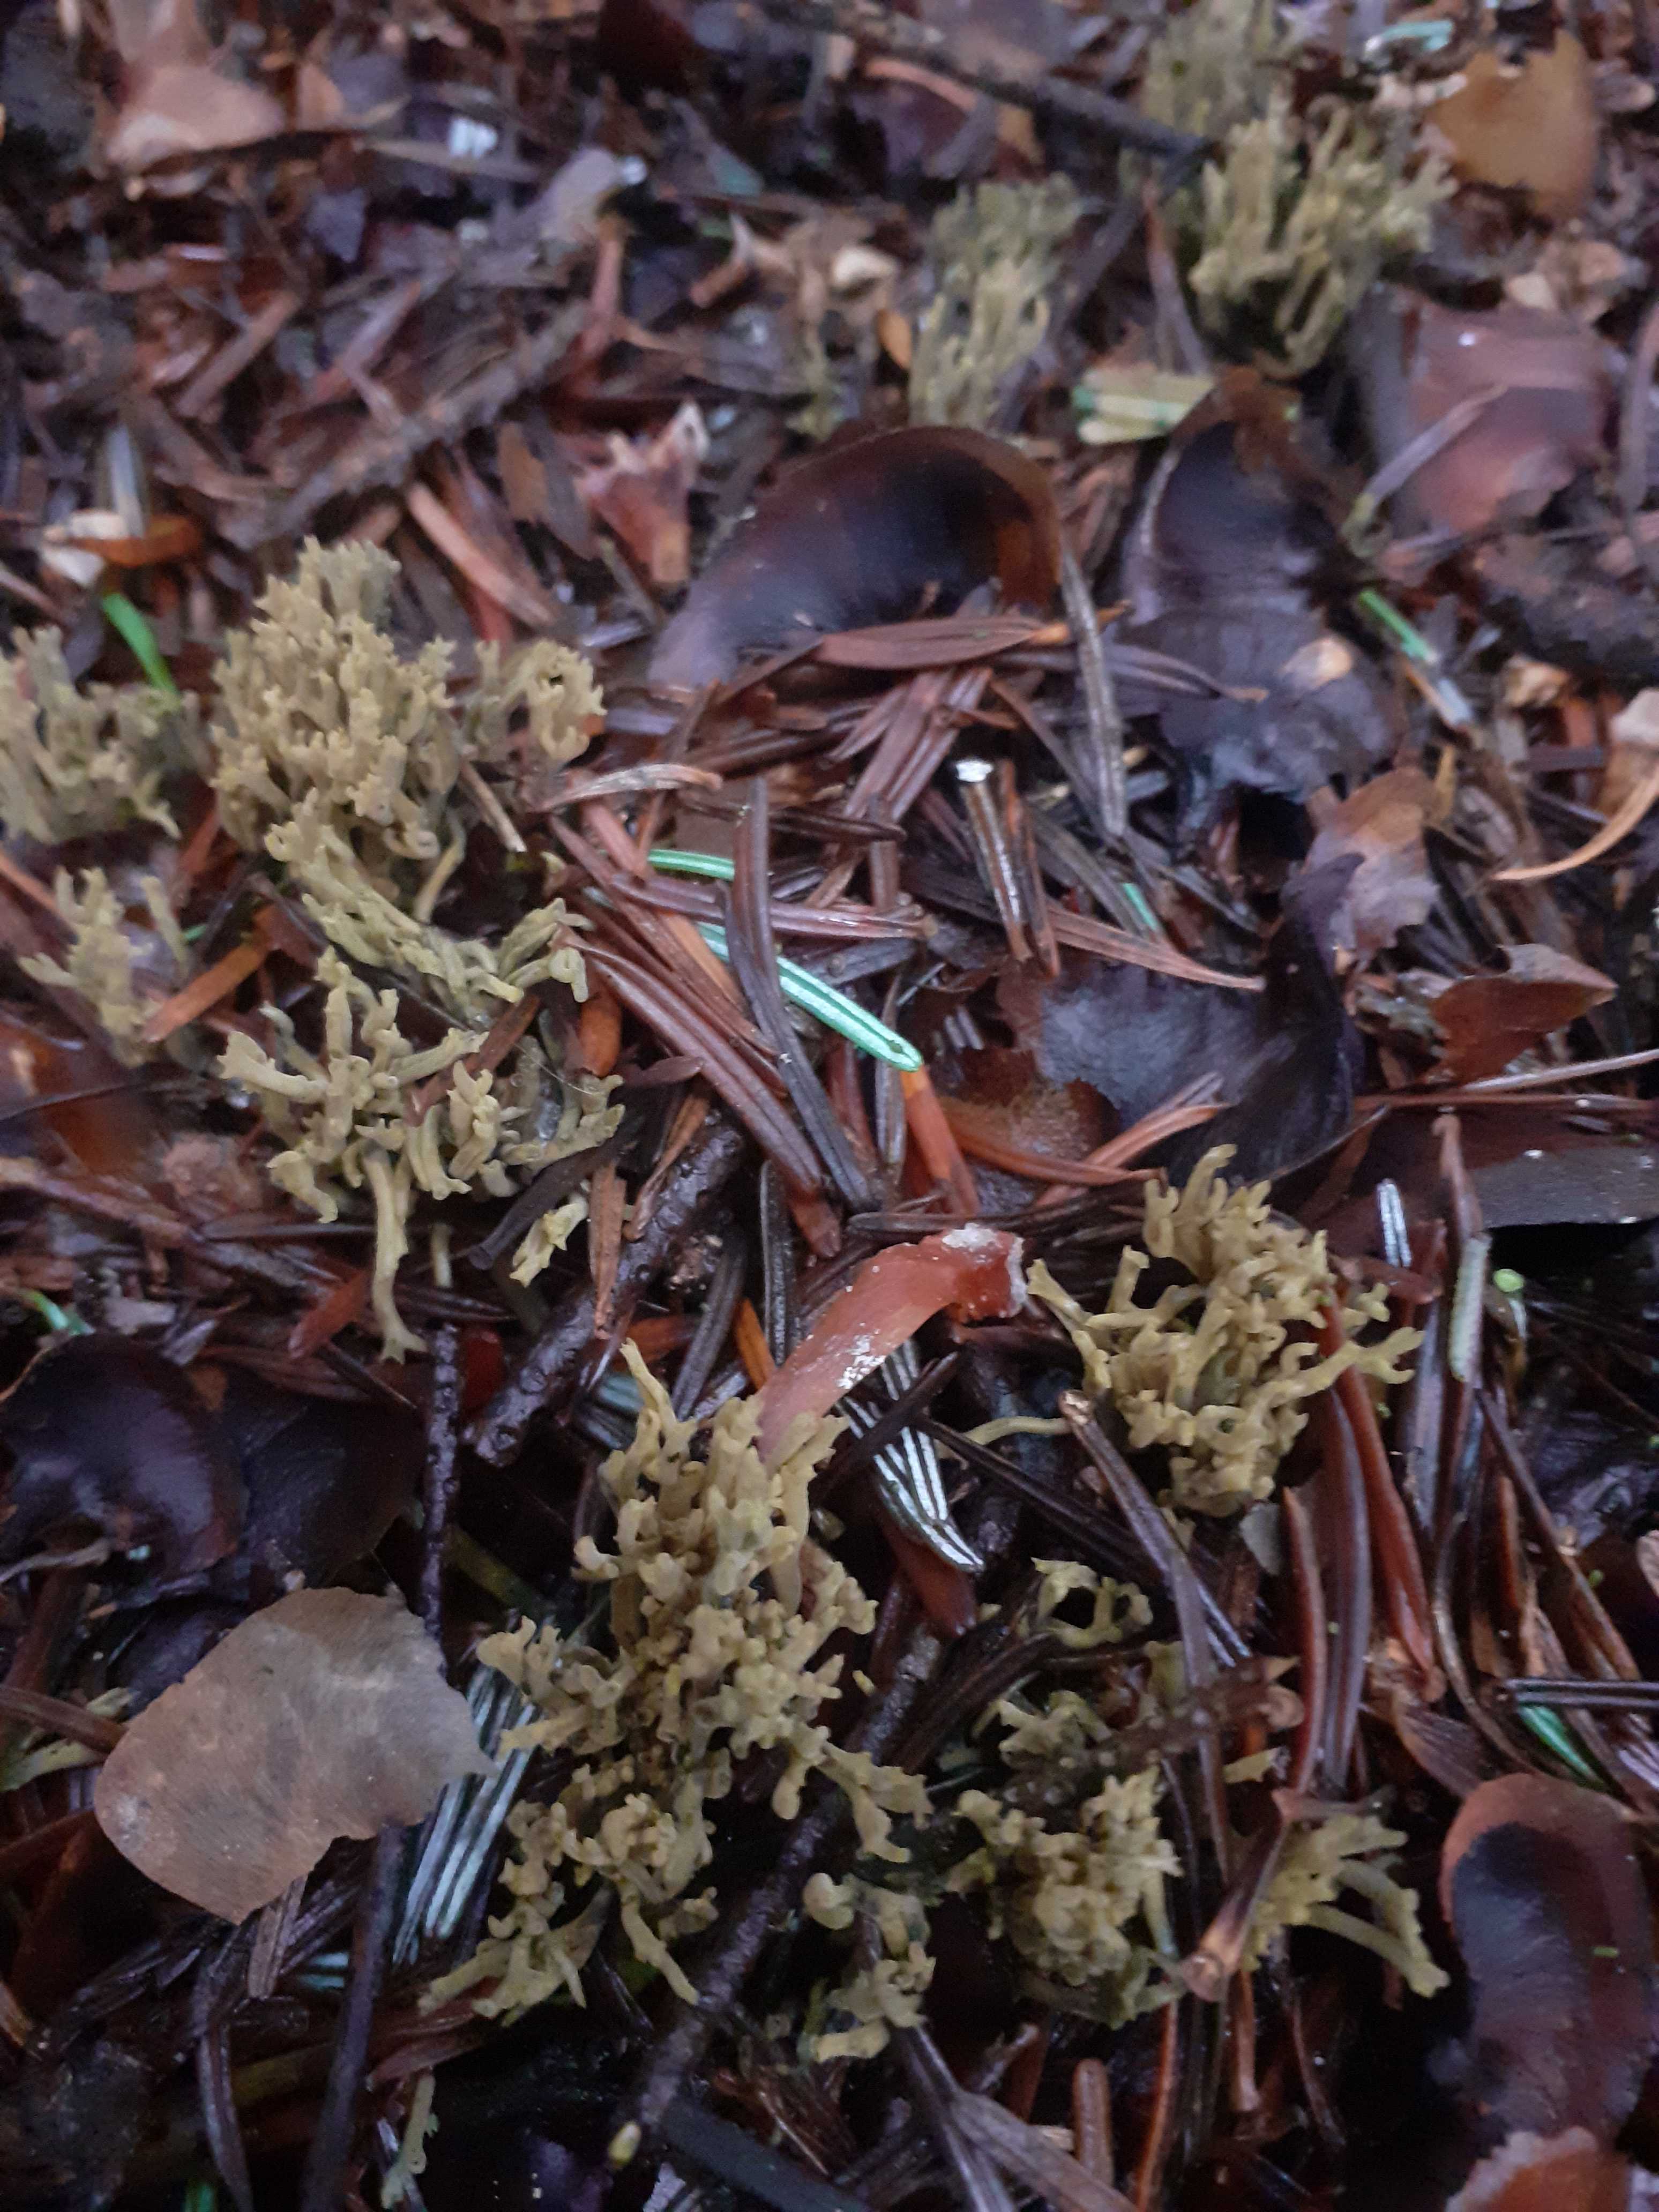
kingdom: Fungi
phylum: Basidiomycota
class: Agaricomycetes
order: Gomphales
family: Gomphaceae
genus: Phaeoclavulina
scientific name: Phaeoclavulina abietina
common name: gulgrøn koralsvamp
